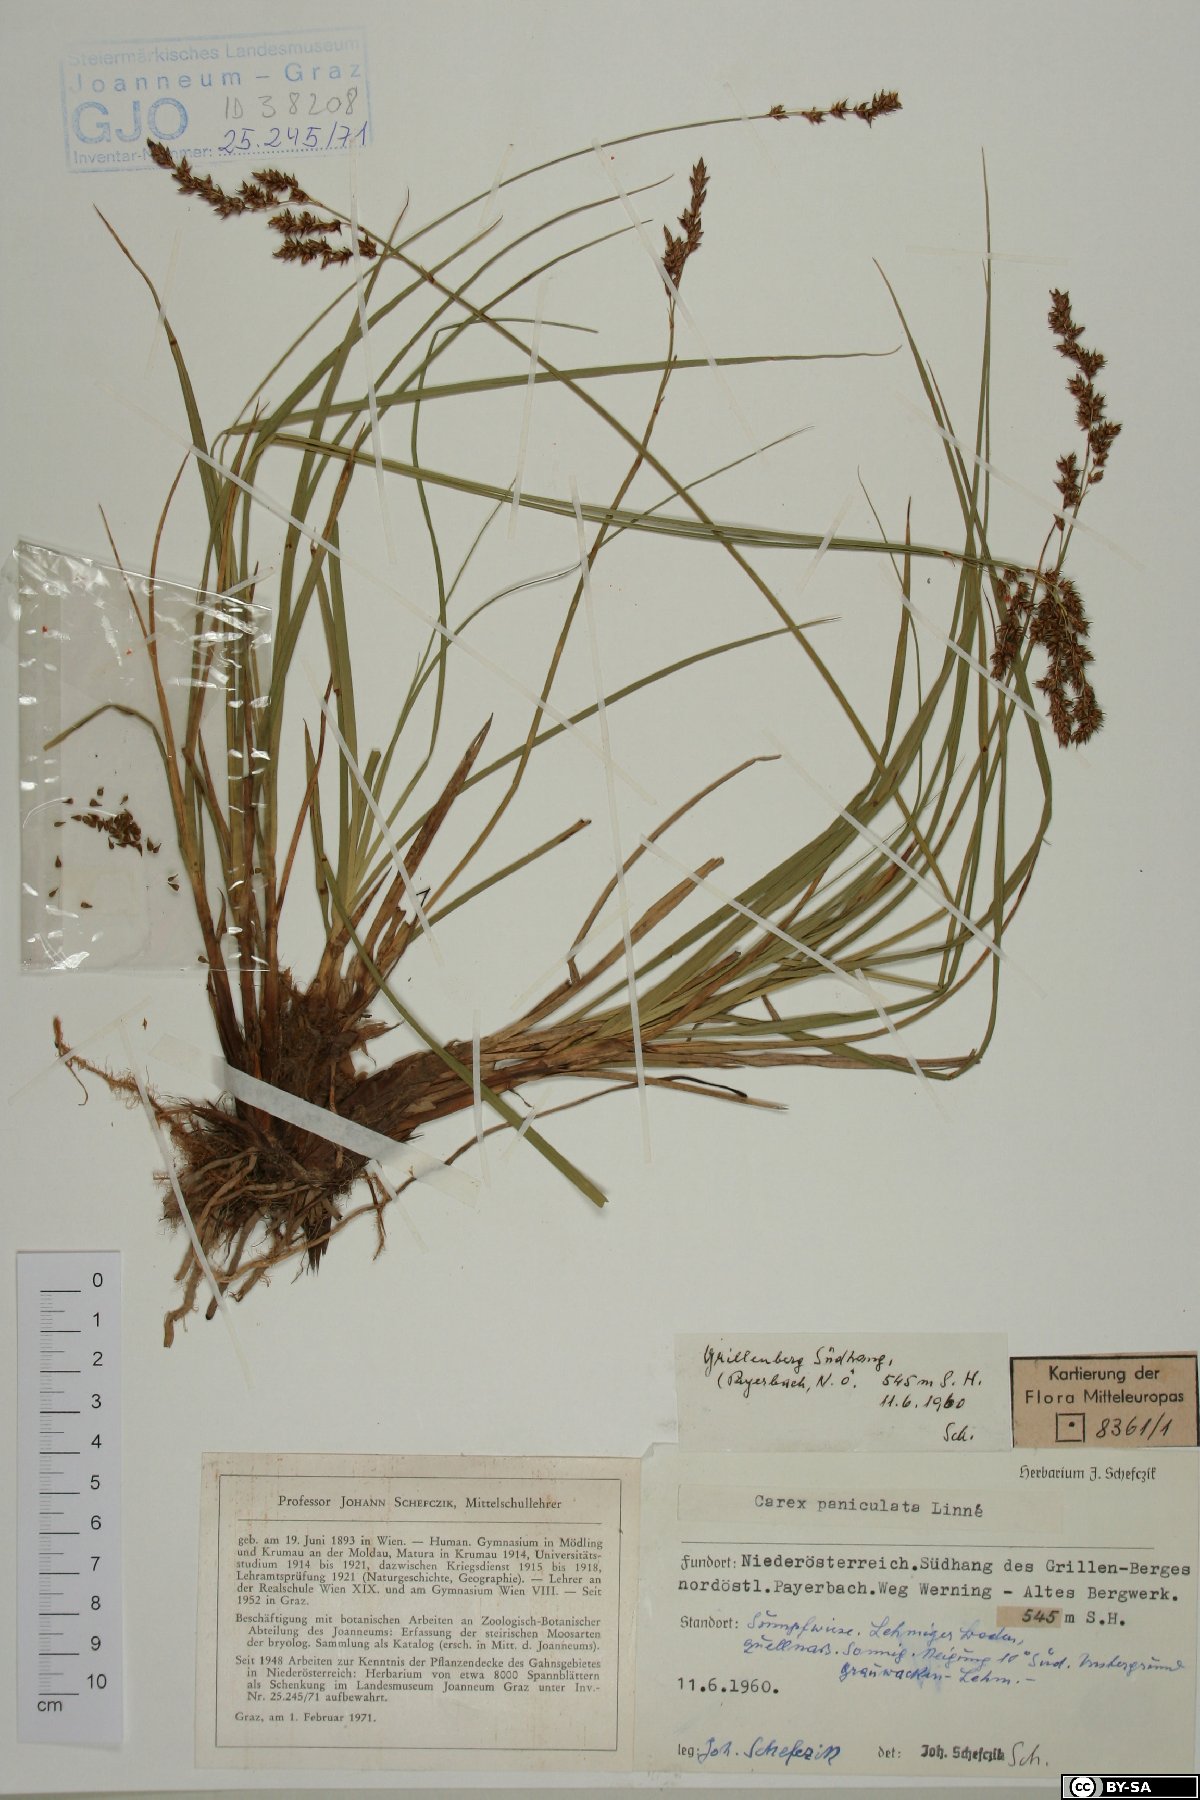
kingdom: Plantae
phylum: Tracheophyta
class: Liliopsida
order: Poales
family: Cyperaceae
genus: Carex
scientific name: Carex paniculata
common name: Greater tussock-sedge
